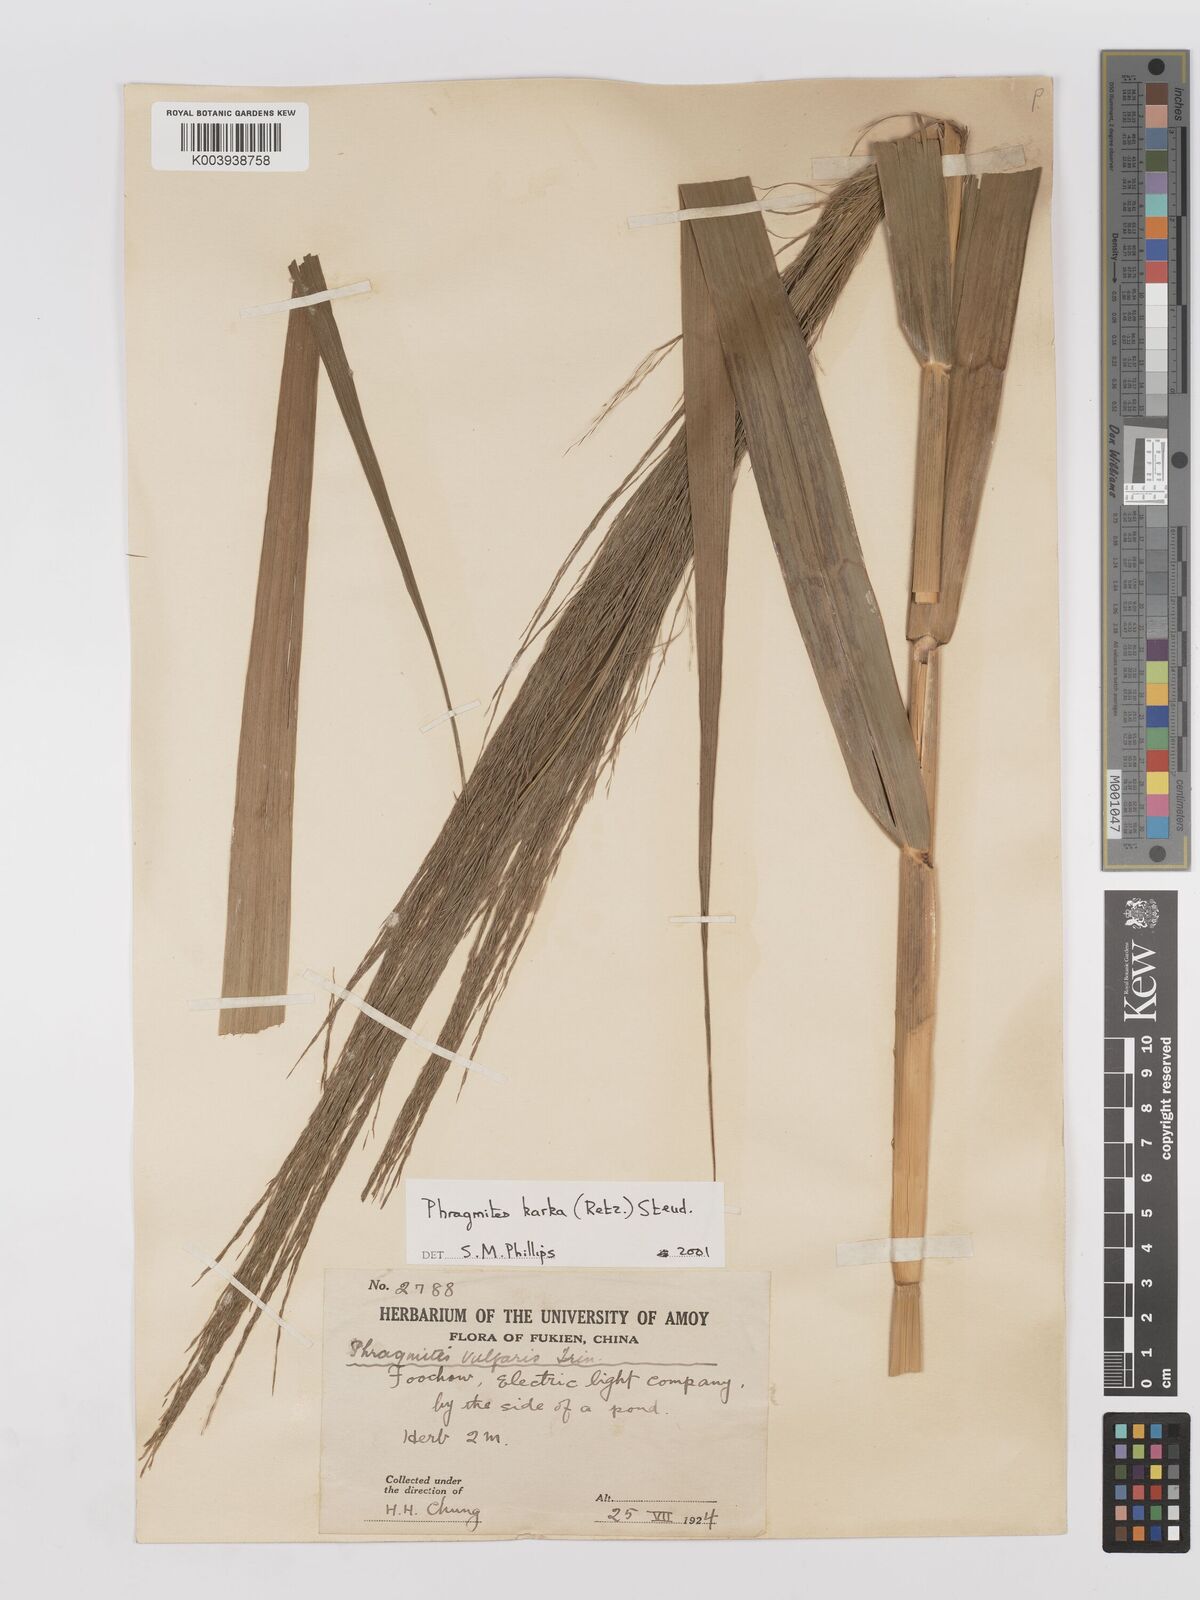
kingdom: Plantae
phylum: Tracheophyta
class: Liliopsida
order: Poales
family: Poaceae
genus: Phragmites
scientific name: Phragmites karka
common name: Tropical reed
